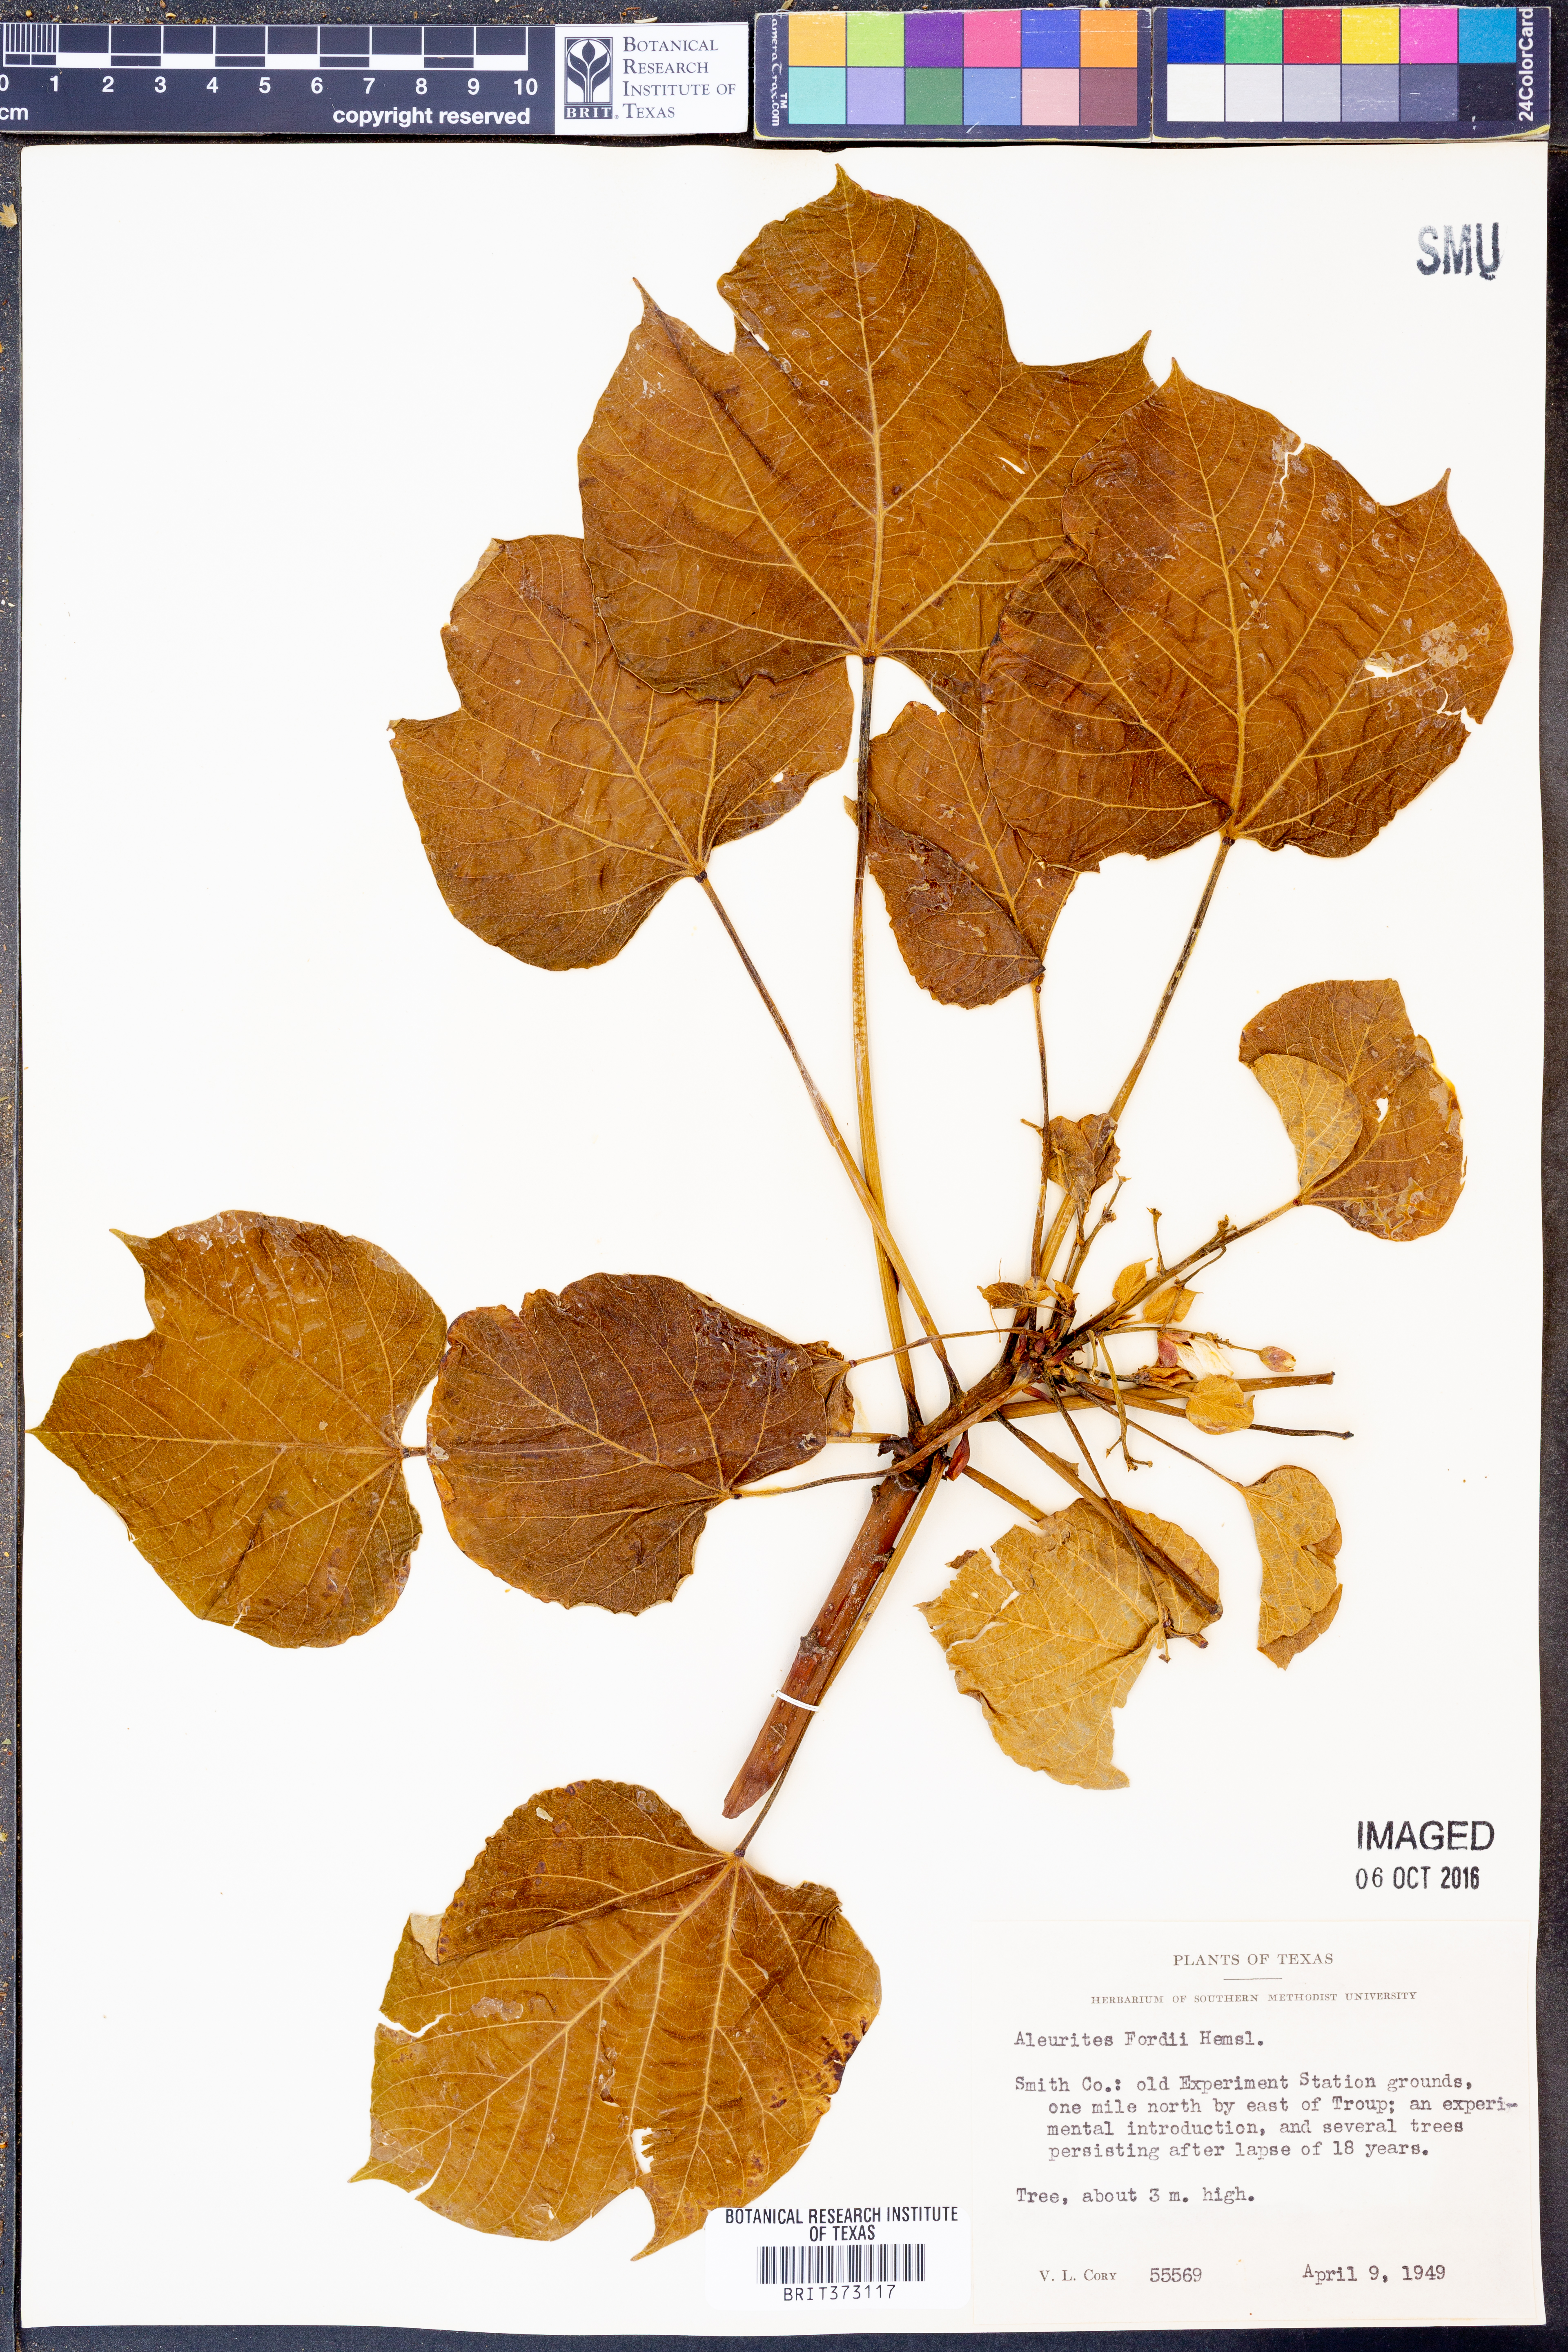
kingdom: Plantae
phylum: Tracheophyta
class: Magnoliopsida
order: Malpighiales
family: Euphorbiaceae
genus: Vernicia
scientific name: Vernicia fordii
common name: Tungoil tree
